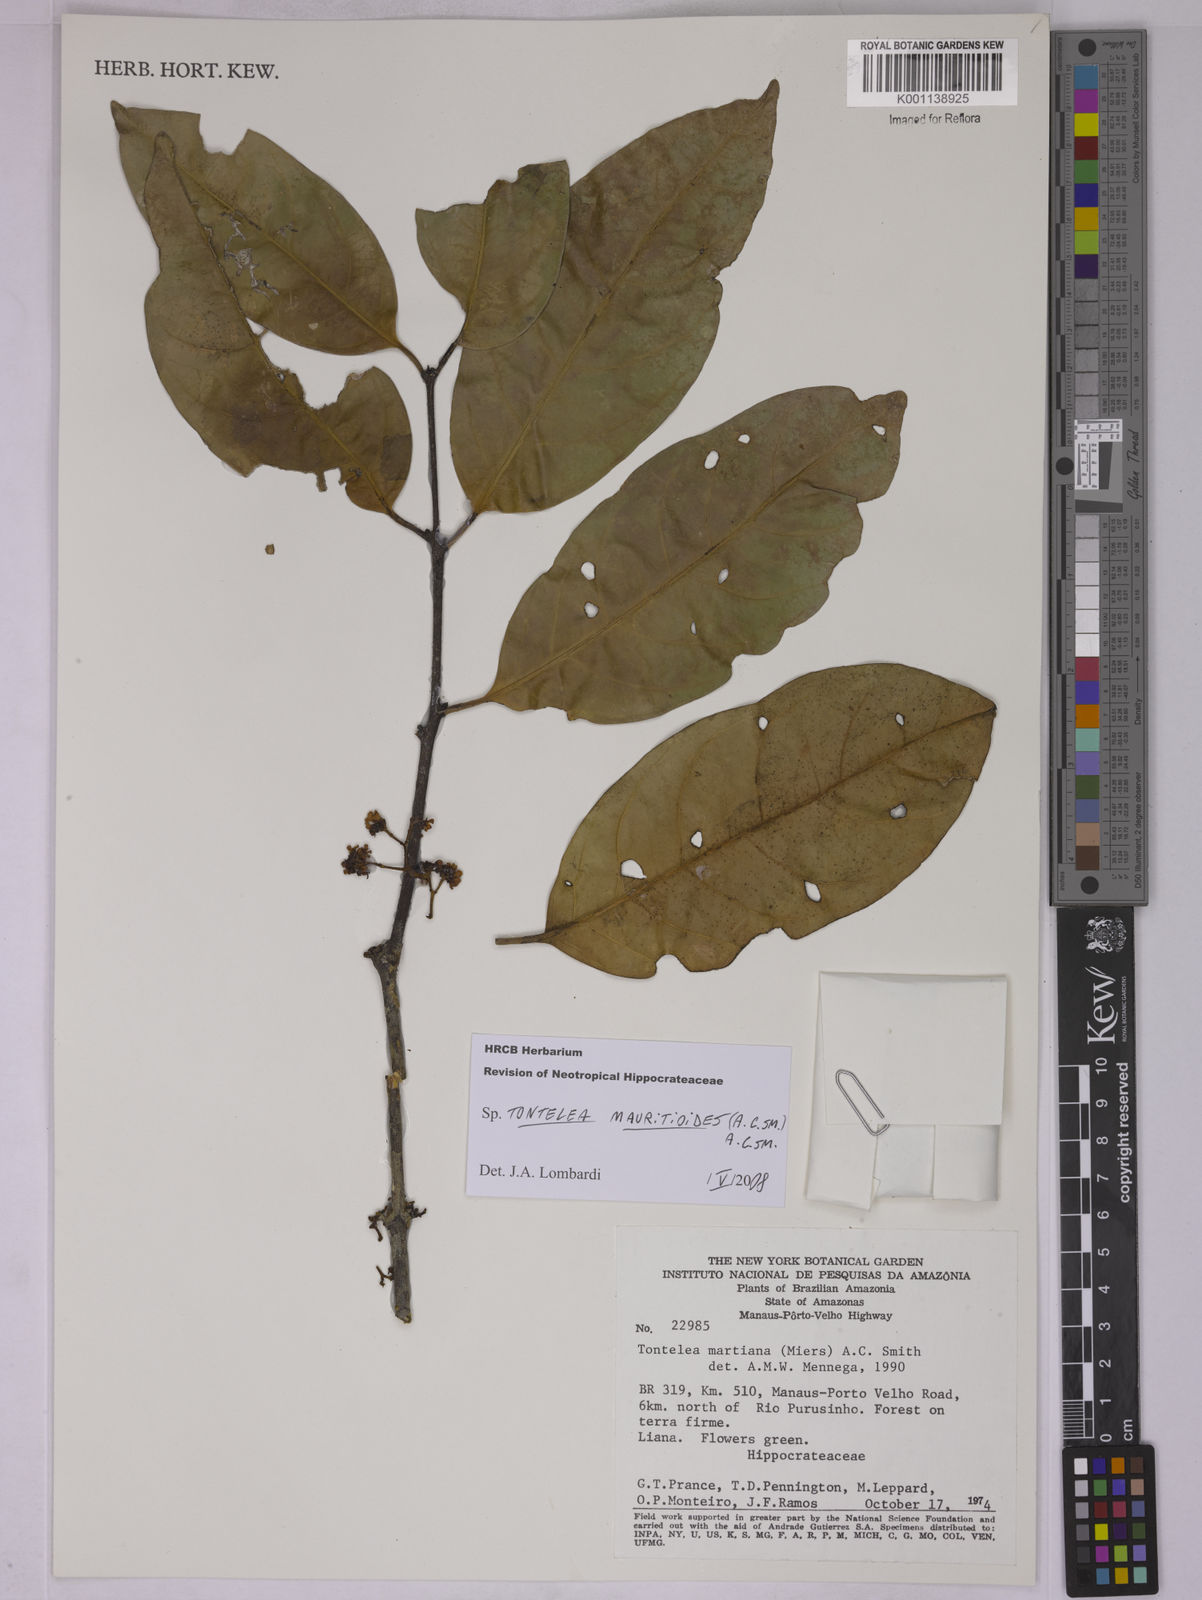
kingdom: Plantae
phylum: Tracheophyta
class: Magnoliopsida
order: Celastrales
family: Celastraceae
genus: Tontelea
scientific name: Tontelea mauritioides
